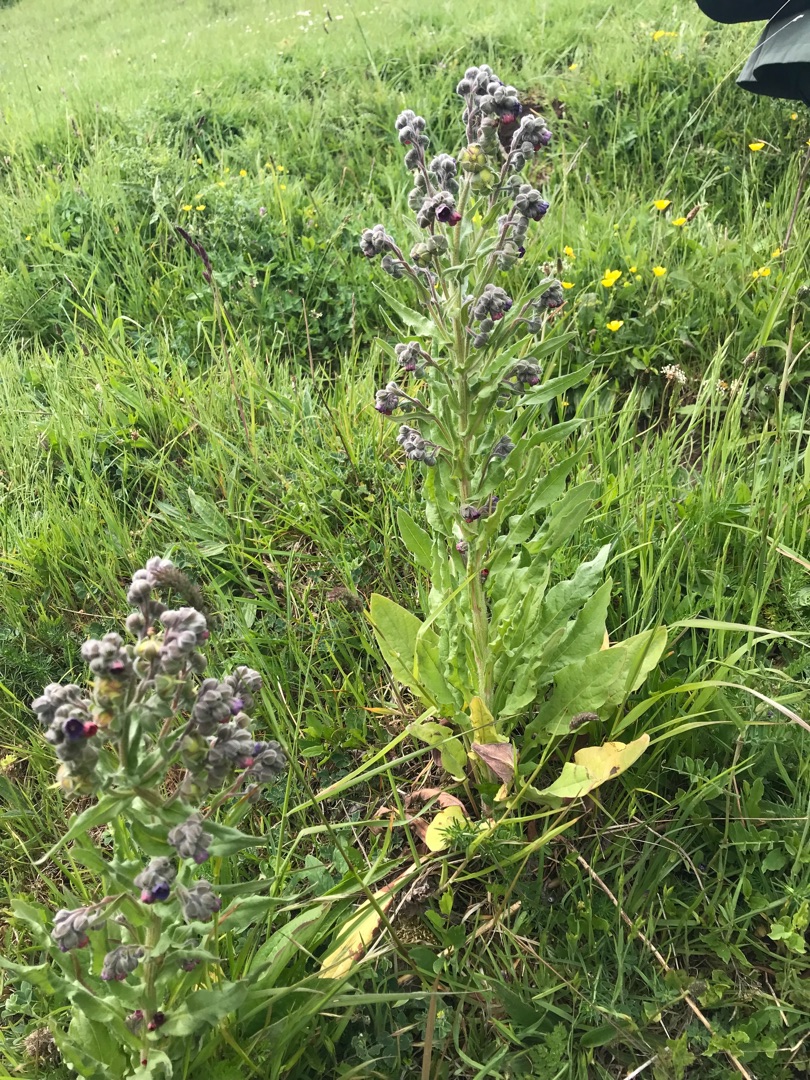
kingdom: Plantae
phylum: Tracheophyta
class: Magnoliopsida
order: Boraginales
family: Boraginaceae
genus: Cynoglossum
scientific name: Cynoglossum officinale
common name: Hundetunge
